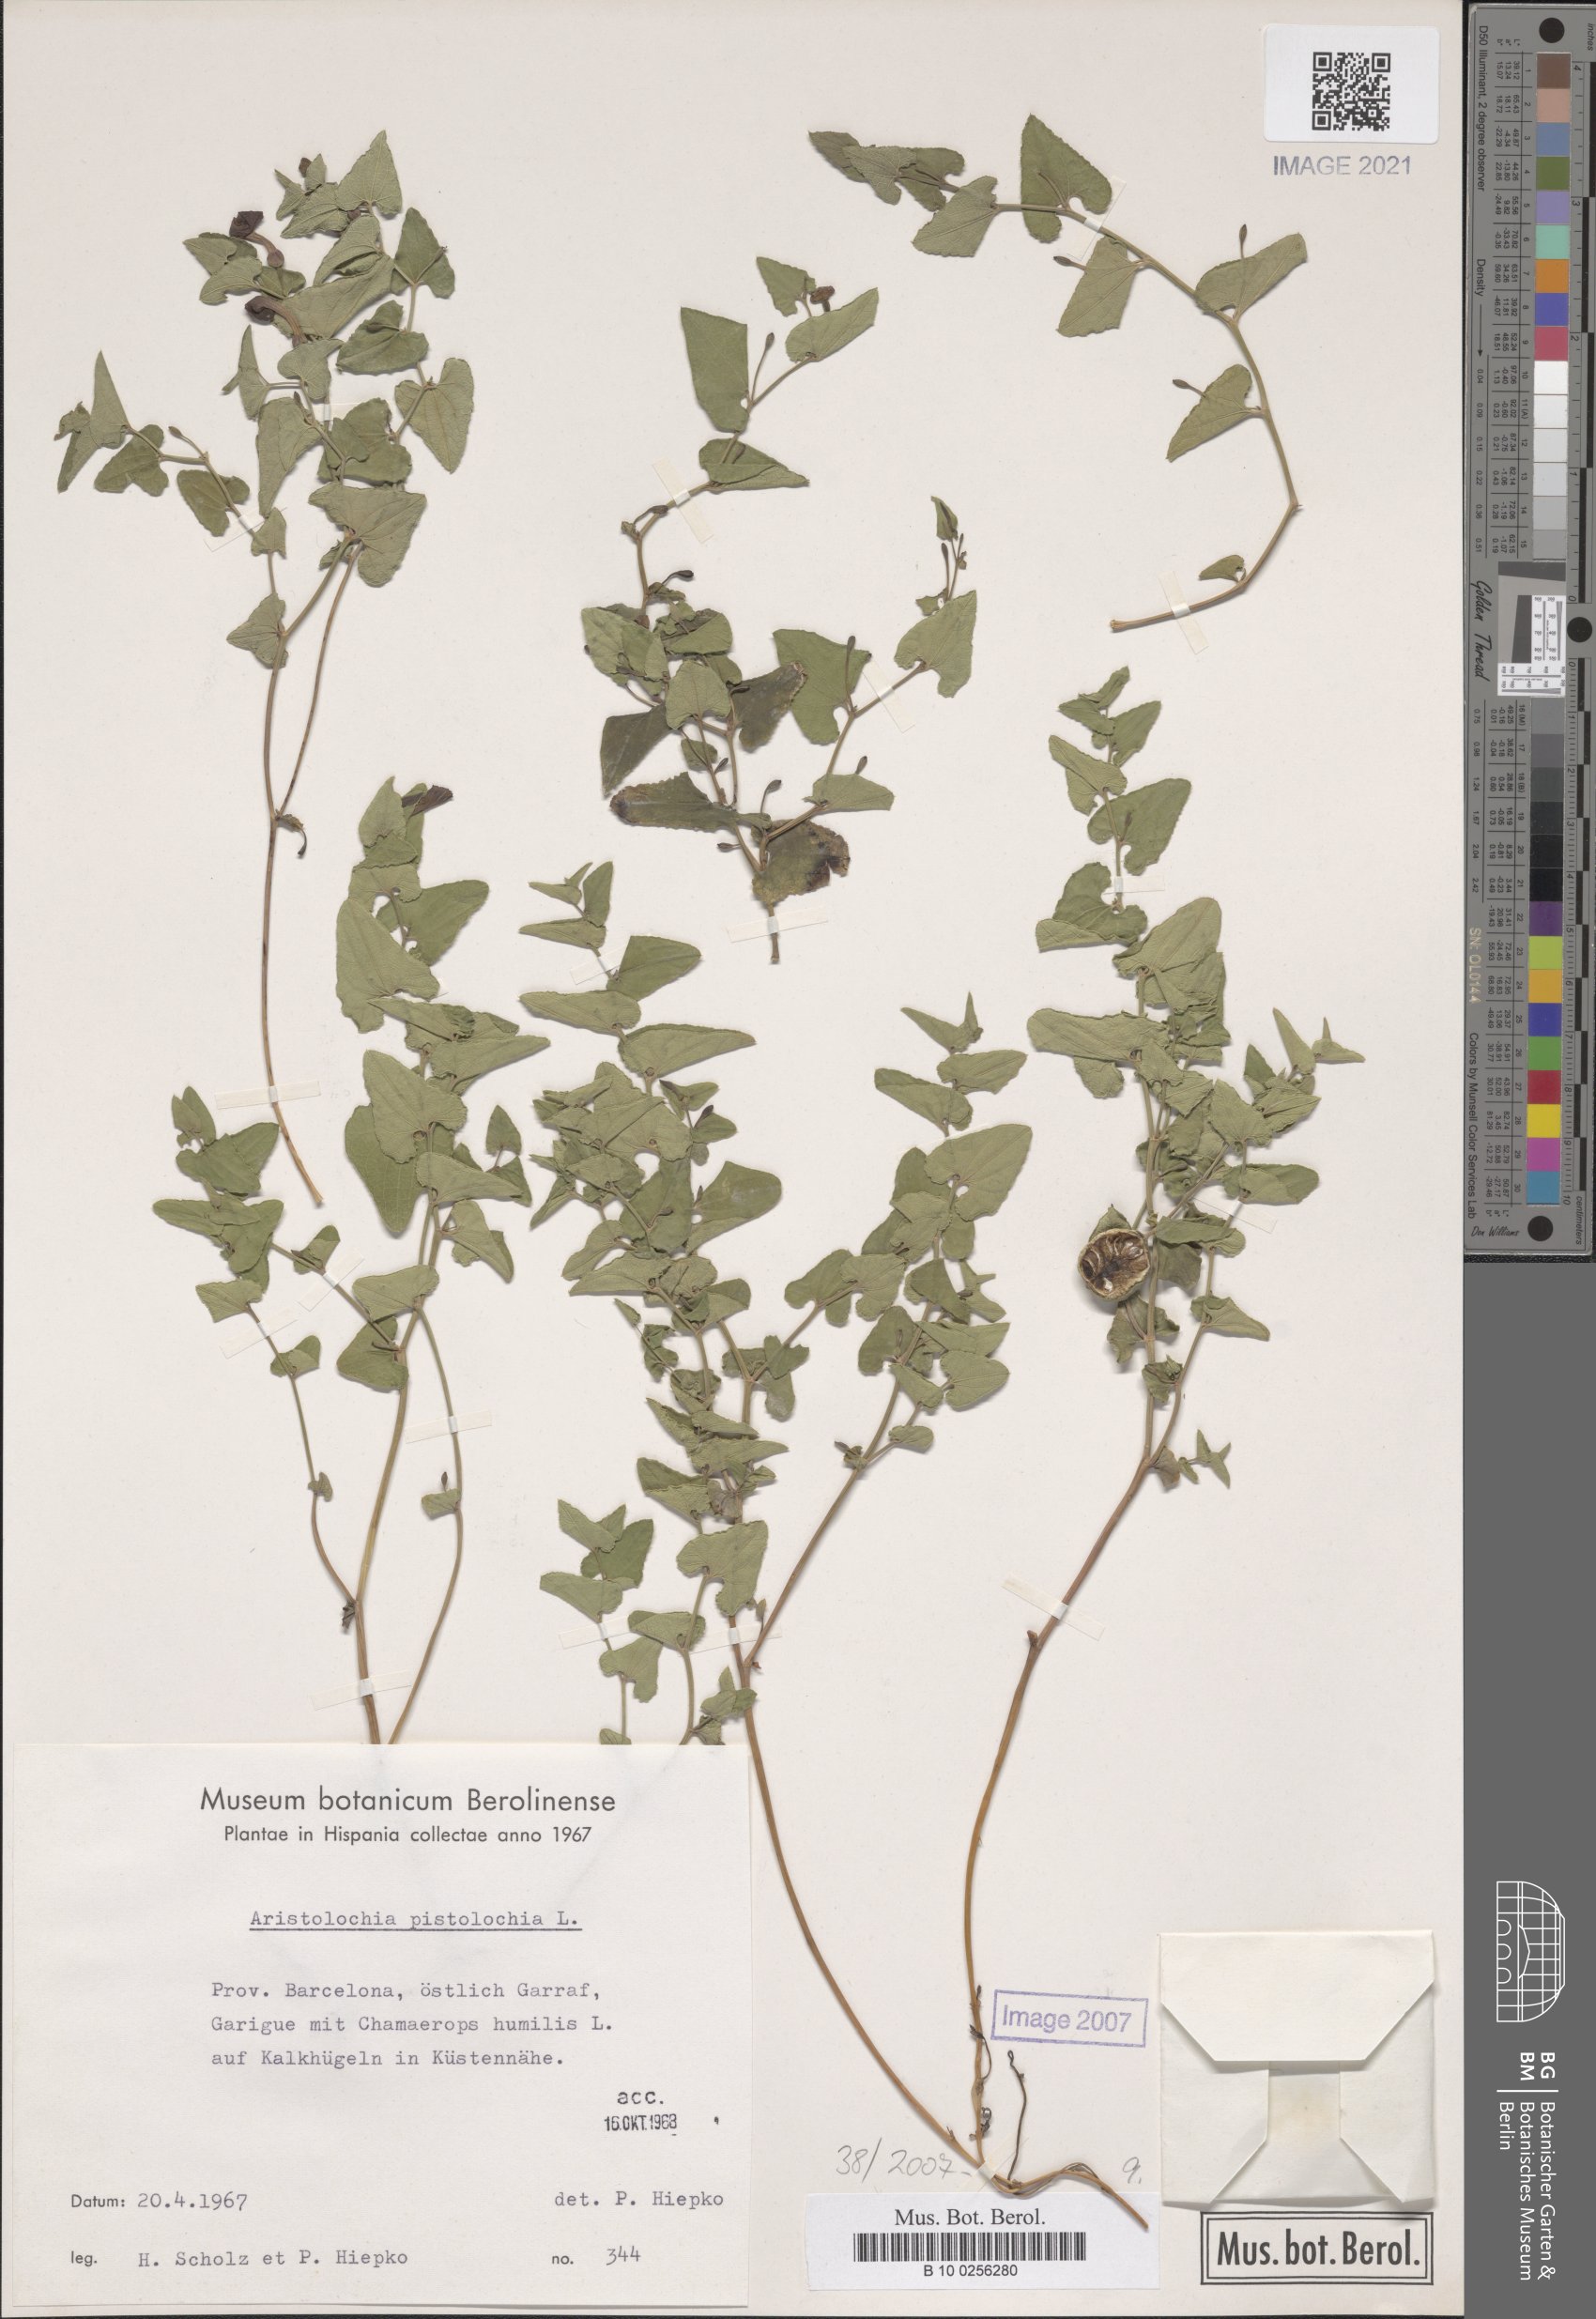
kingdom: Plantae
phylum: Tracheophyta
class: Magnoliopsida
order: Piperales
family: Aristolochiaceae
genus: Aristolochia
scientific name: Aristolochia pistolochia
